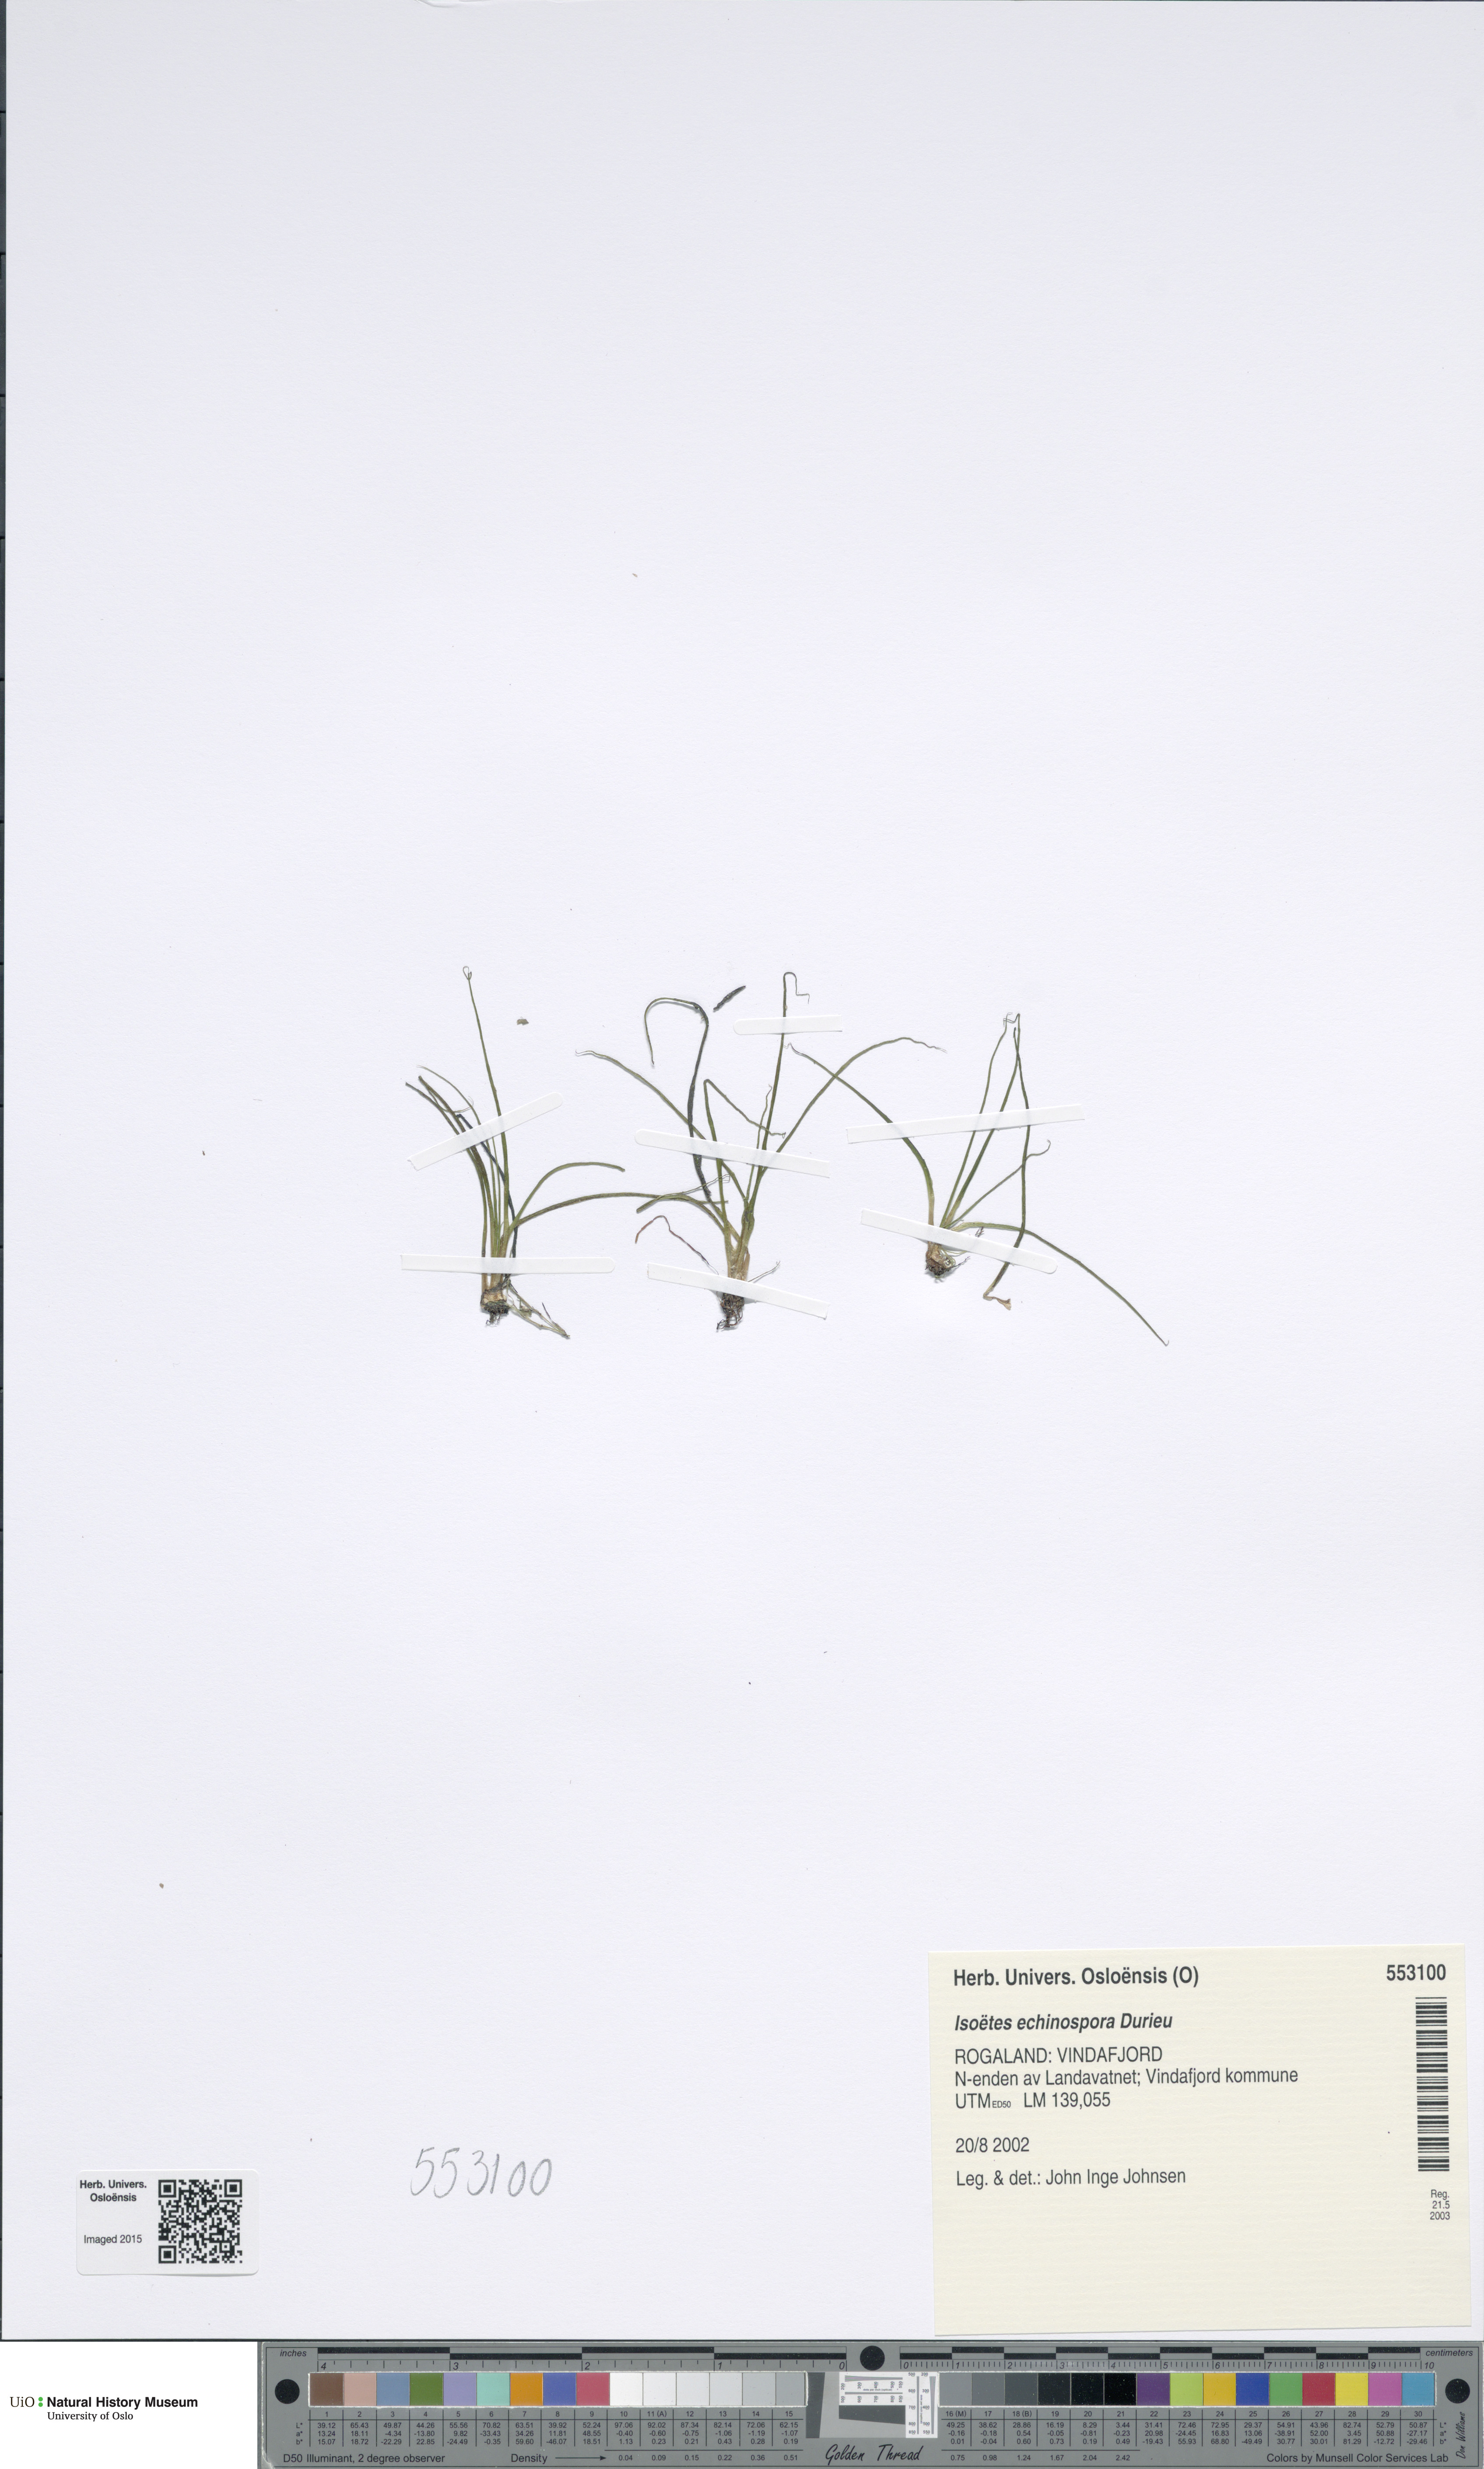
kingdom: Plantae
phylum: Tracheophyta
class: Lycopodiopsida
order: Isoetales
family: Isoetaceae
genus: Isoetes
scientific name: Isoetes echinospora
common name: Spring quillwort
